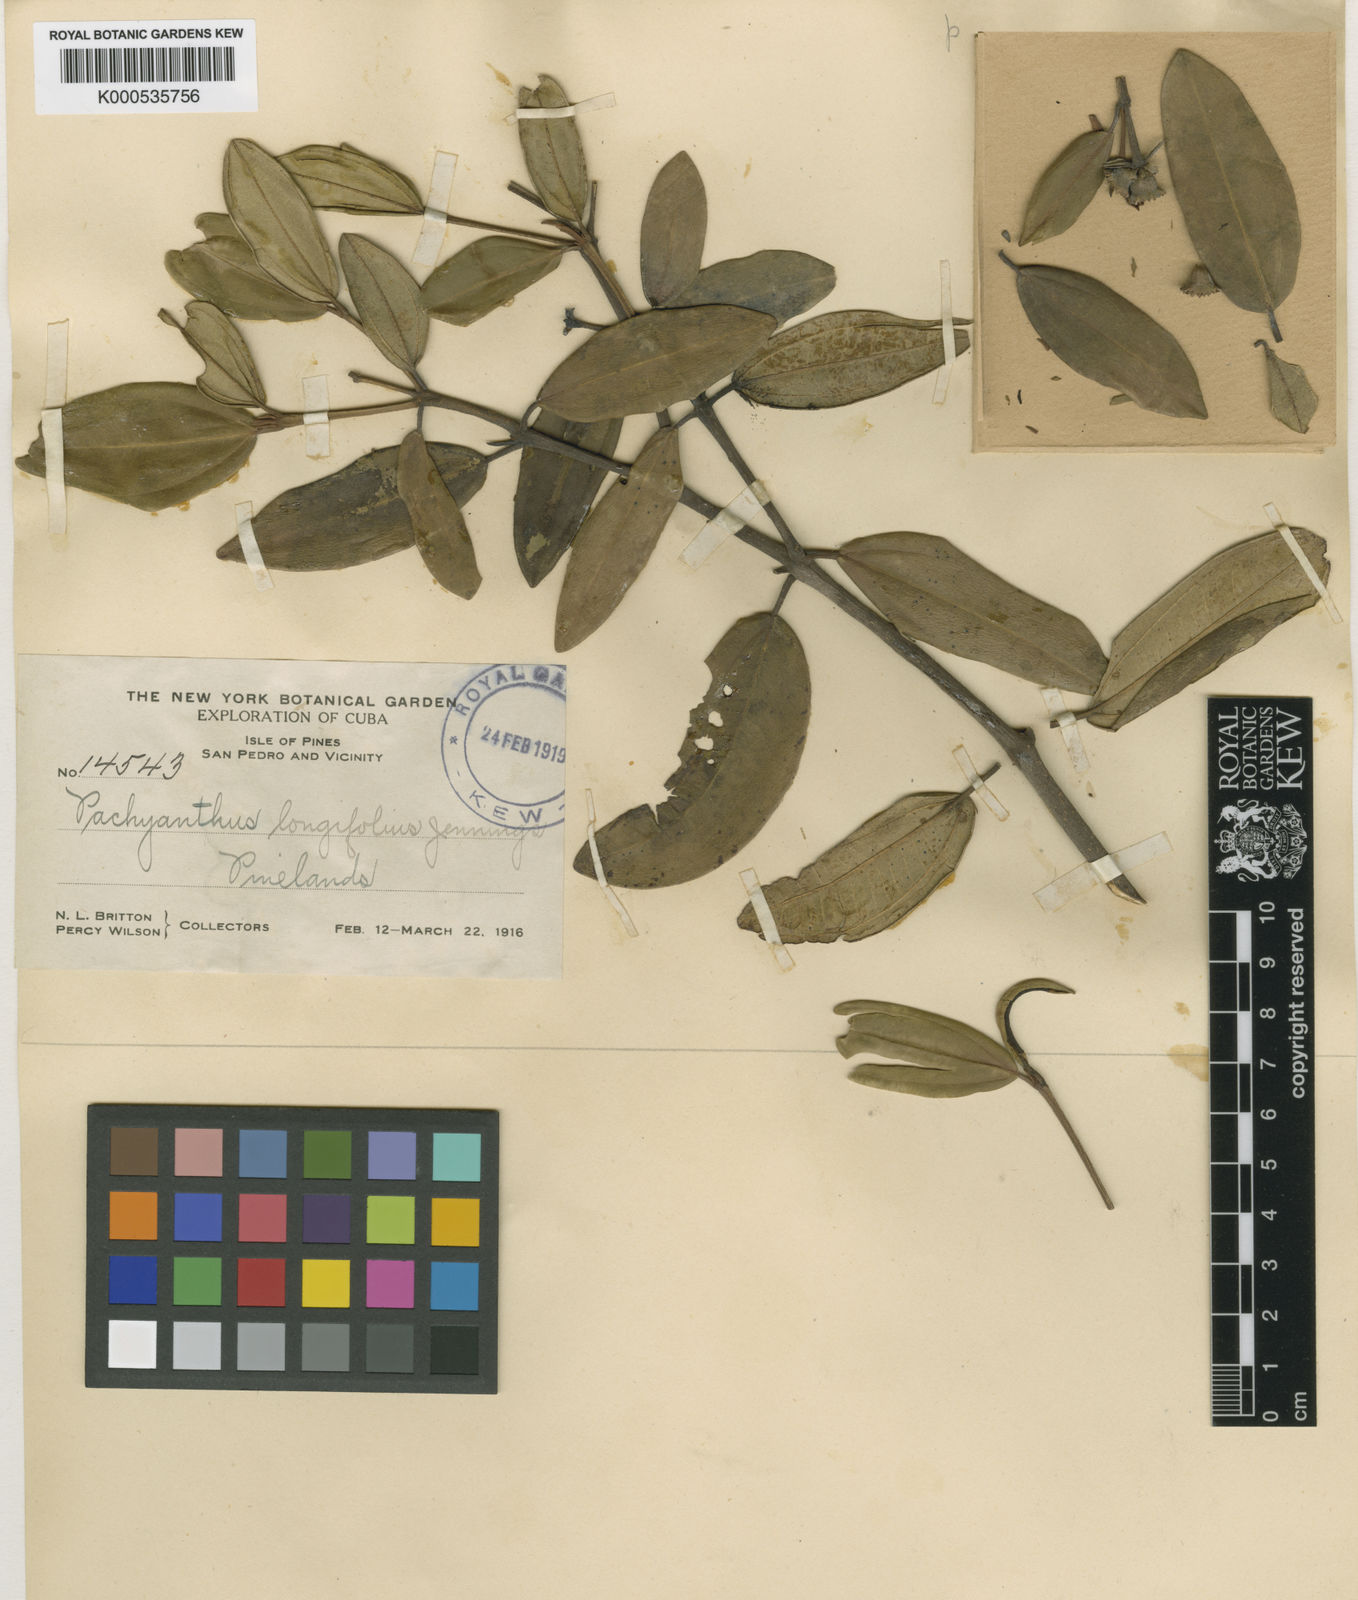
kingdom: Plantae
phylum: Tracheophyta
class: Magnoliopsida
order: Myrtales
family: Melastomataceae
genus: Miconia
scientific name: Miconia brachyloba
